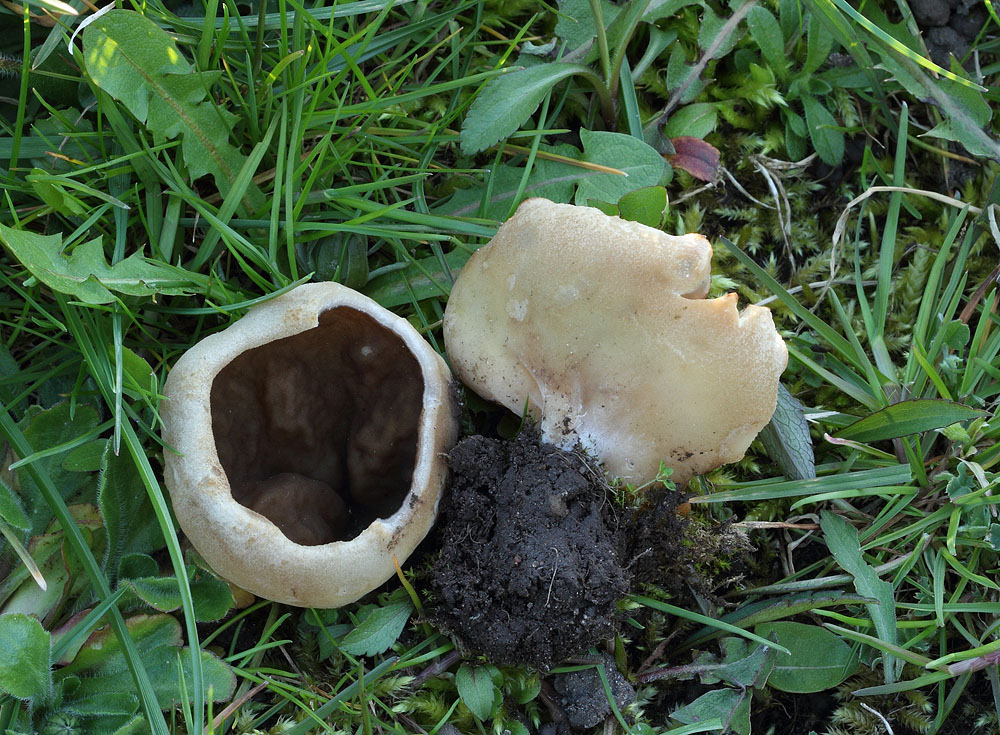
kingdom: Fungi
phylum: Ascomycota
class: Pezizomycetes
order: Pezizales
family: Morchellaceae
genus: Disciotis
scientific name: Disciotis venosa
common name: klor-bægermorkel
